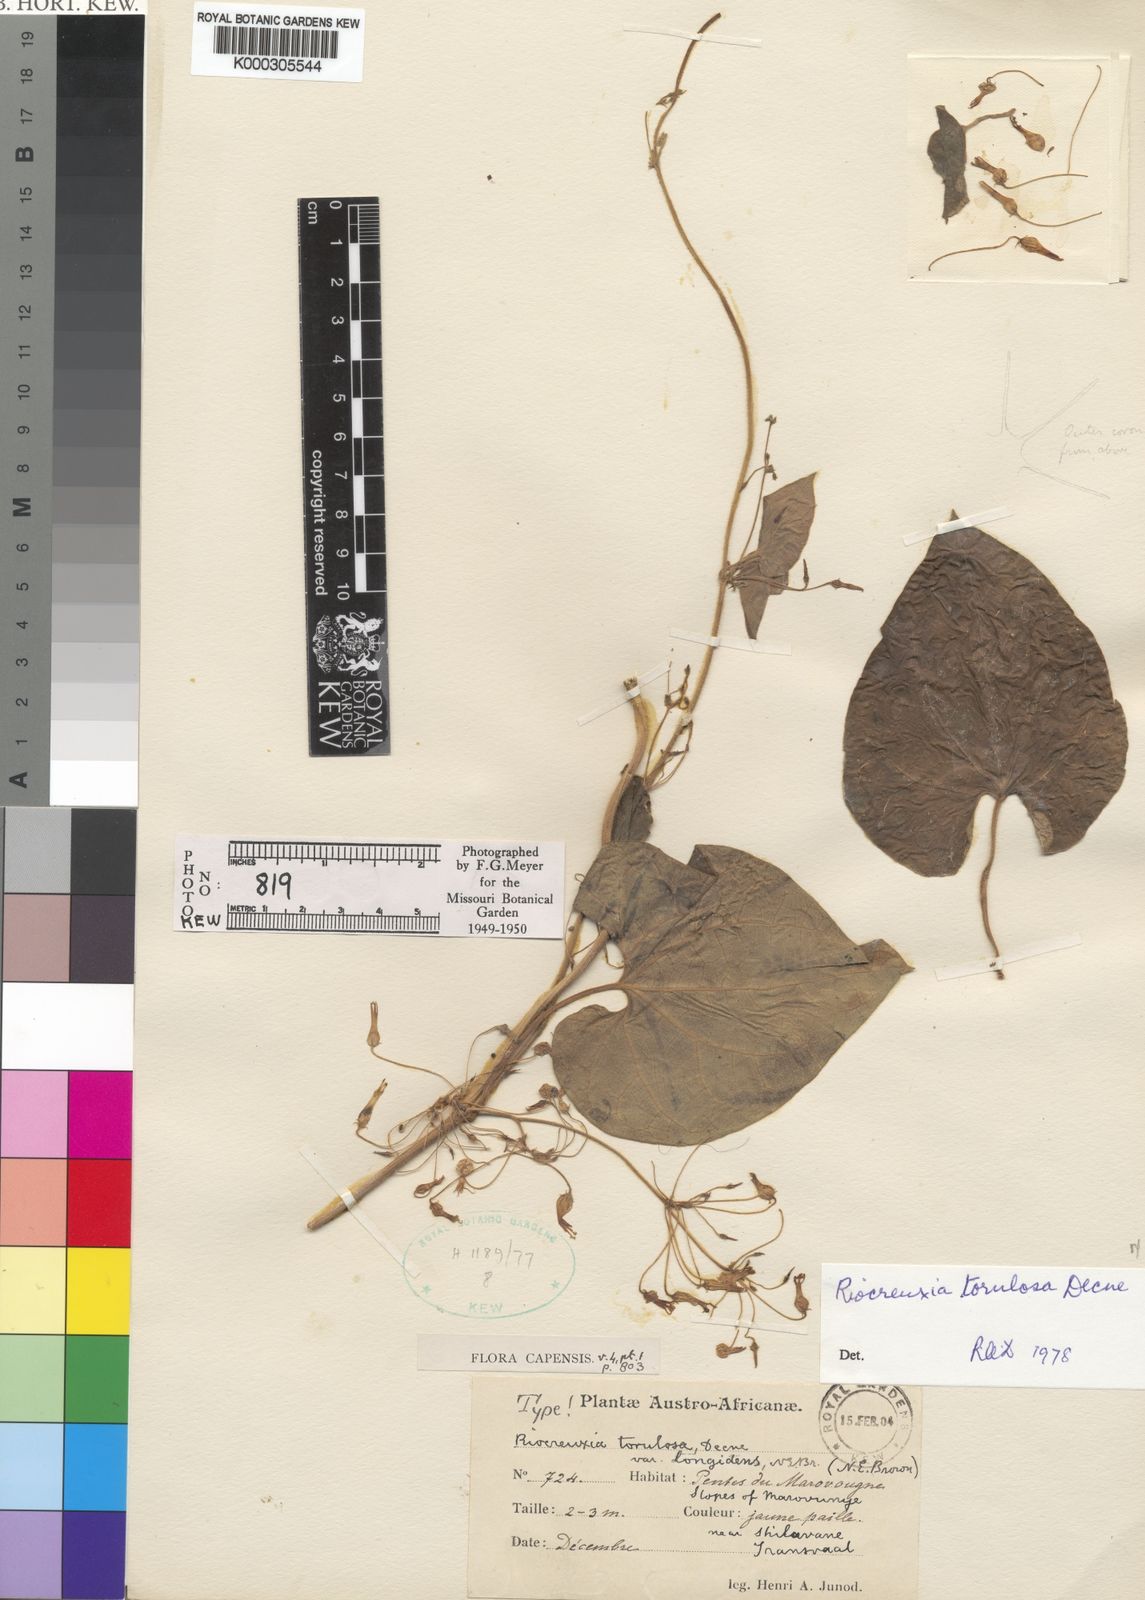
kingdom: Plantae
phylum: Tracheophyta
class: Magnoliopsida
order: Gentianales
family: Apocynaceae
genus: Riocreuxia
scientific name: Riocreuxia torulosa
